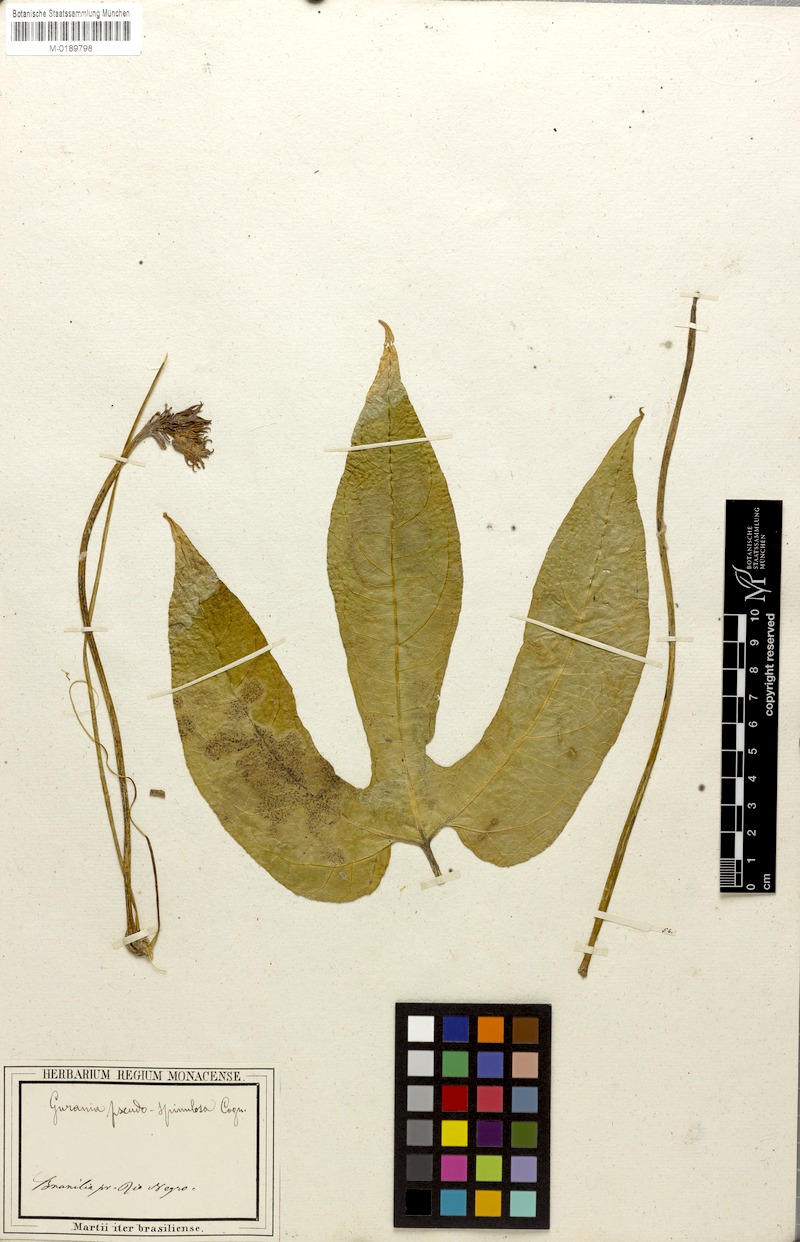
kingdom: Plantae
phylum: Tracheophyta
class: Magnoliopsida
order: Cucurbitales
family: Cucurbitaceae
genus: Gurania
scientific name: Gurania pseudospinulosa
